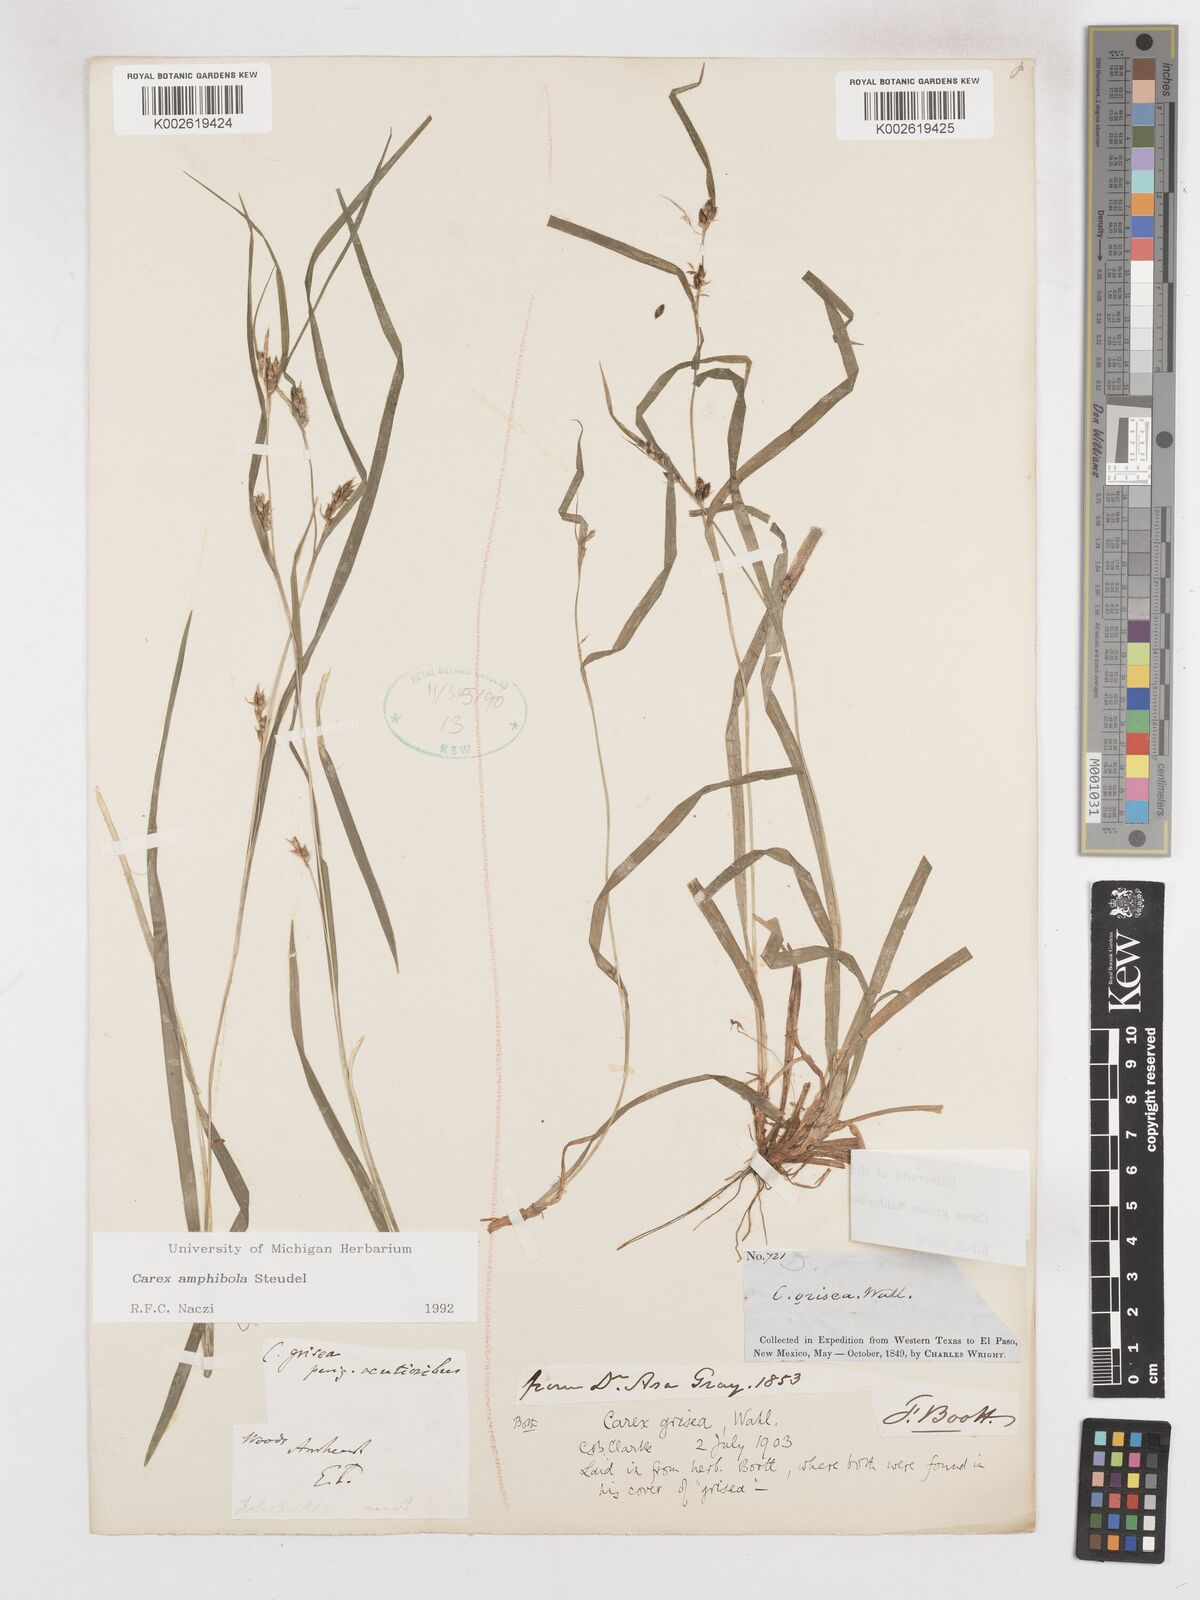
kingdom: Plantae
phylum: Tracheophyta
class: Liliopsida
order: Poales
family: Cyperaceae
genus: Carex
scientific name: Carex grisea
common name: Eastern narrow-leaved sedge
